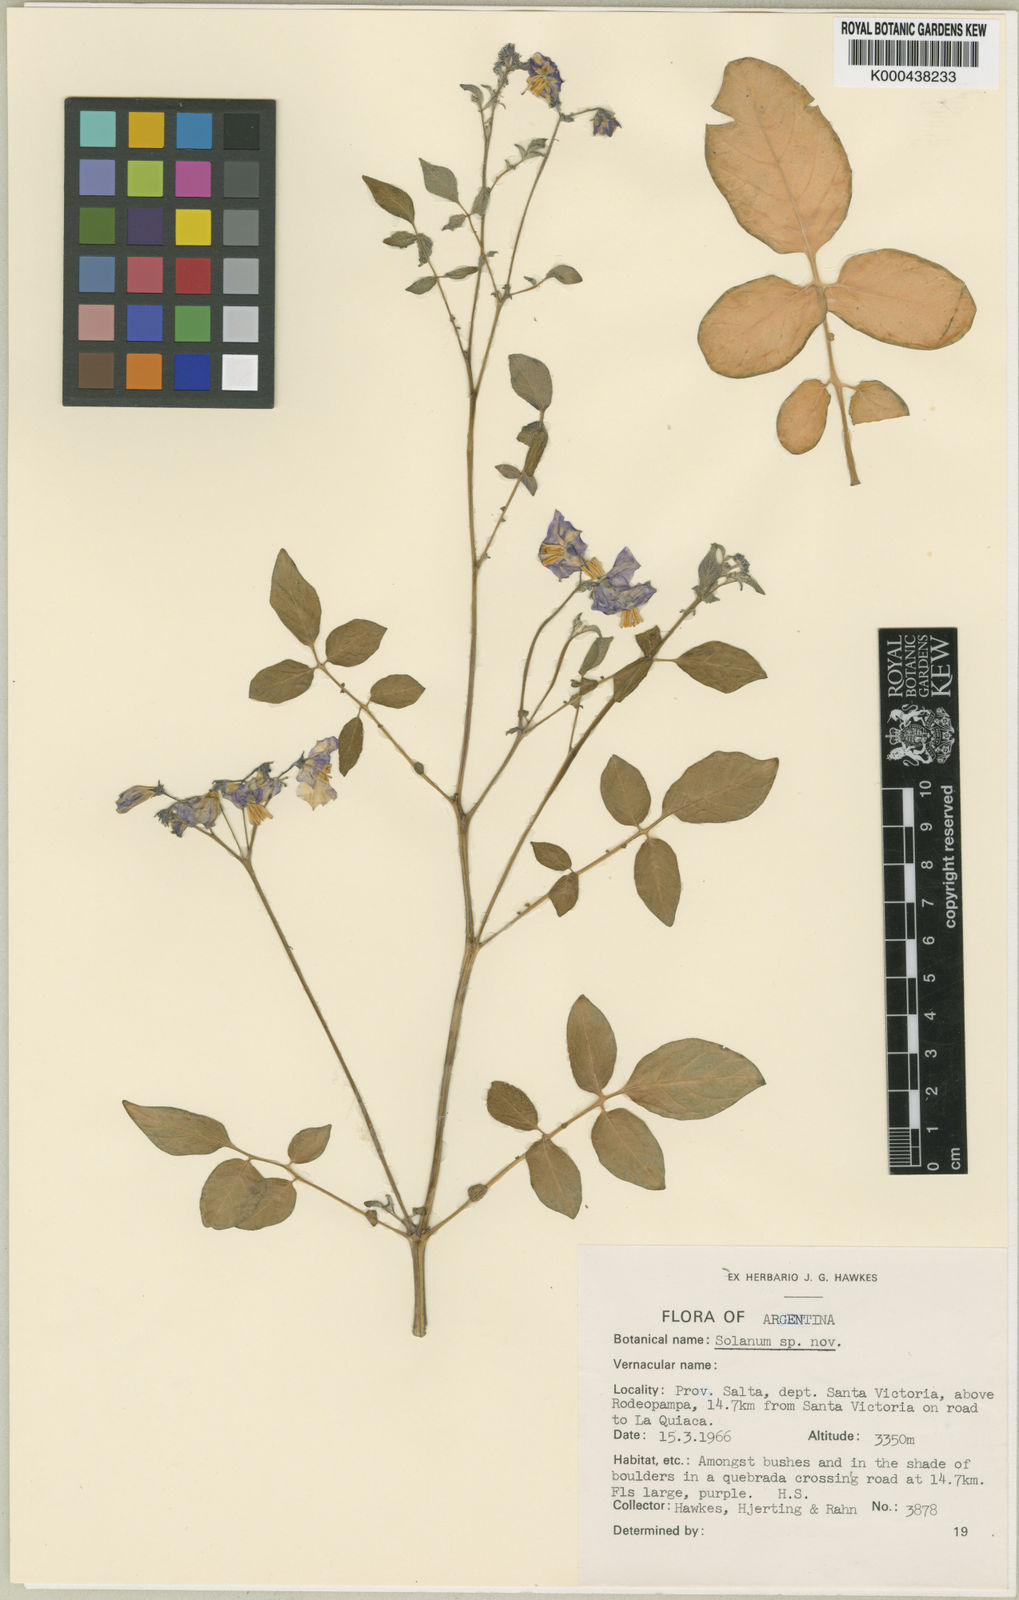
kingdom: Plantae
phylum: Tracheophyta
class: Magnoliopsida
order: Solanales
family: Solanaceae
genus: Solanum
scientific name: Solanum neorossii
